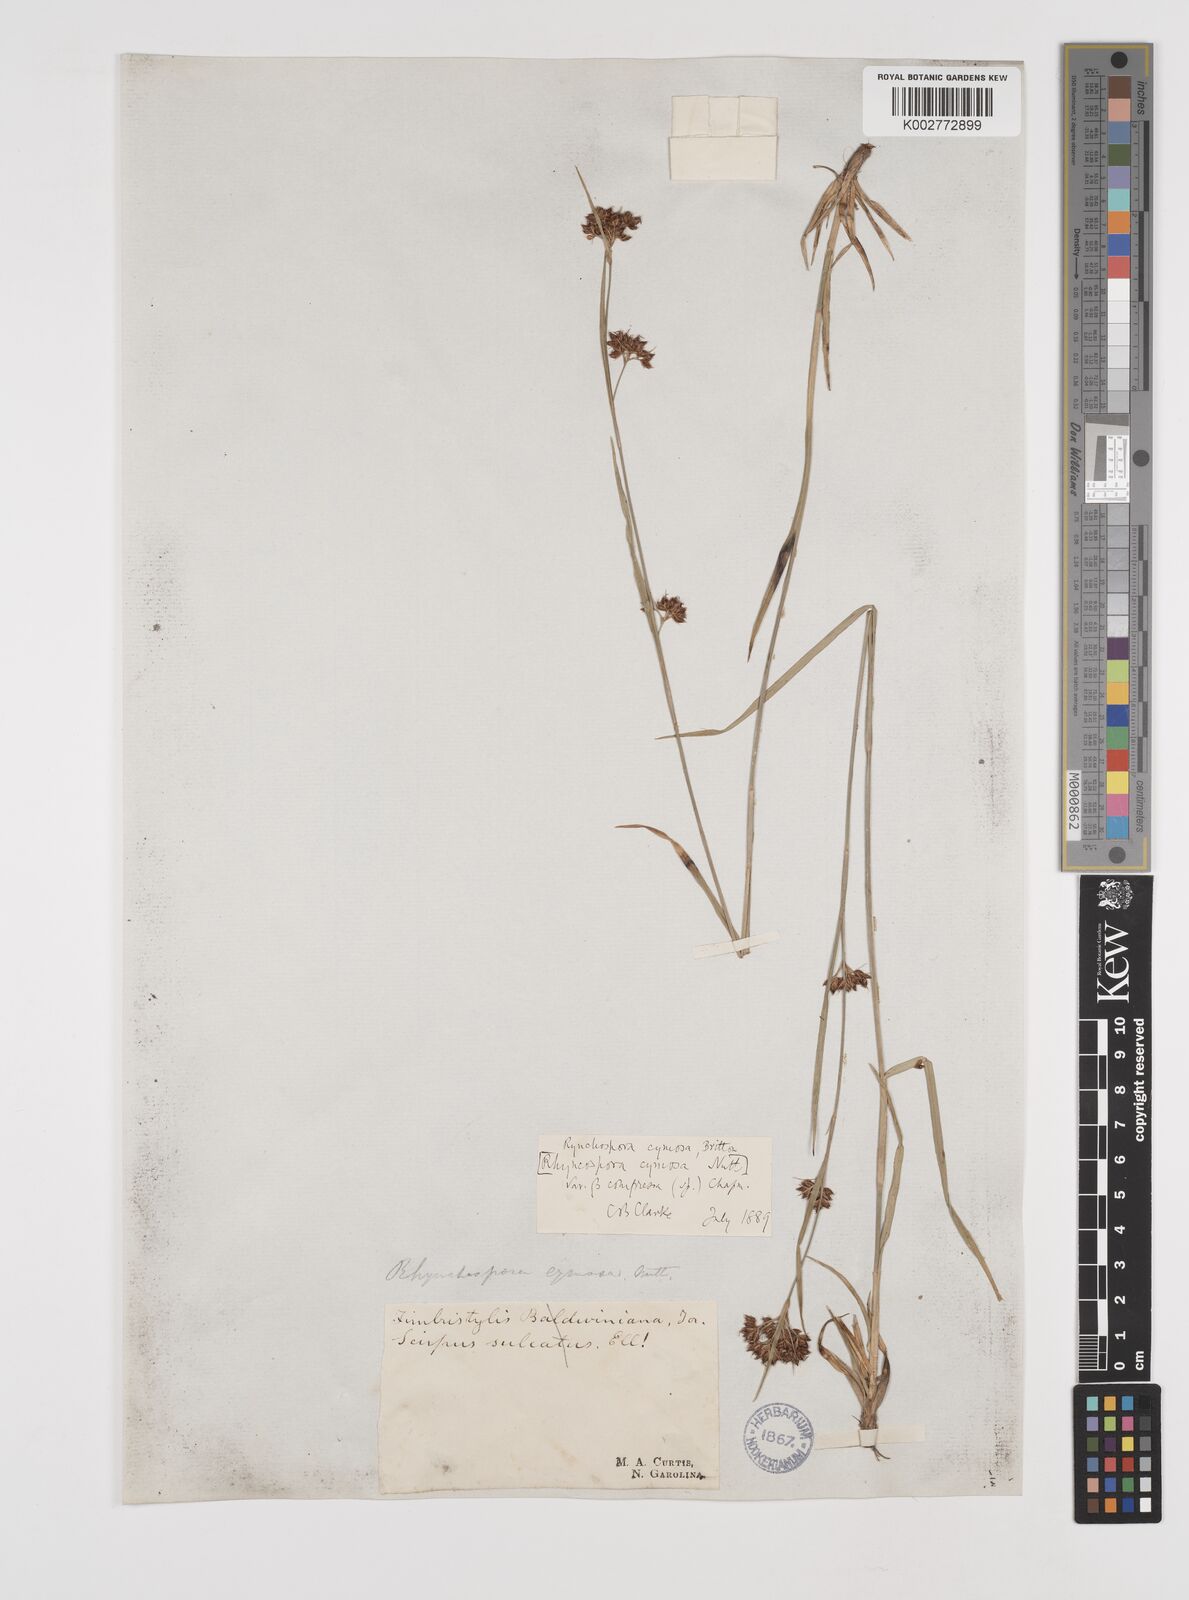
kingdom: Plantae
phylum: Tracheophyta
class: Liliopsida
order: Poales
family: Cyperaceae
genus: Scirpus
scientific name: Scirpus polyphyllus
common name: Leafy bulrush
